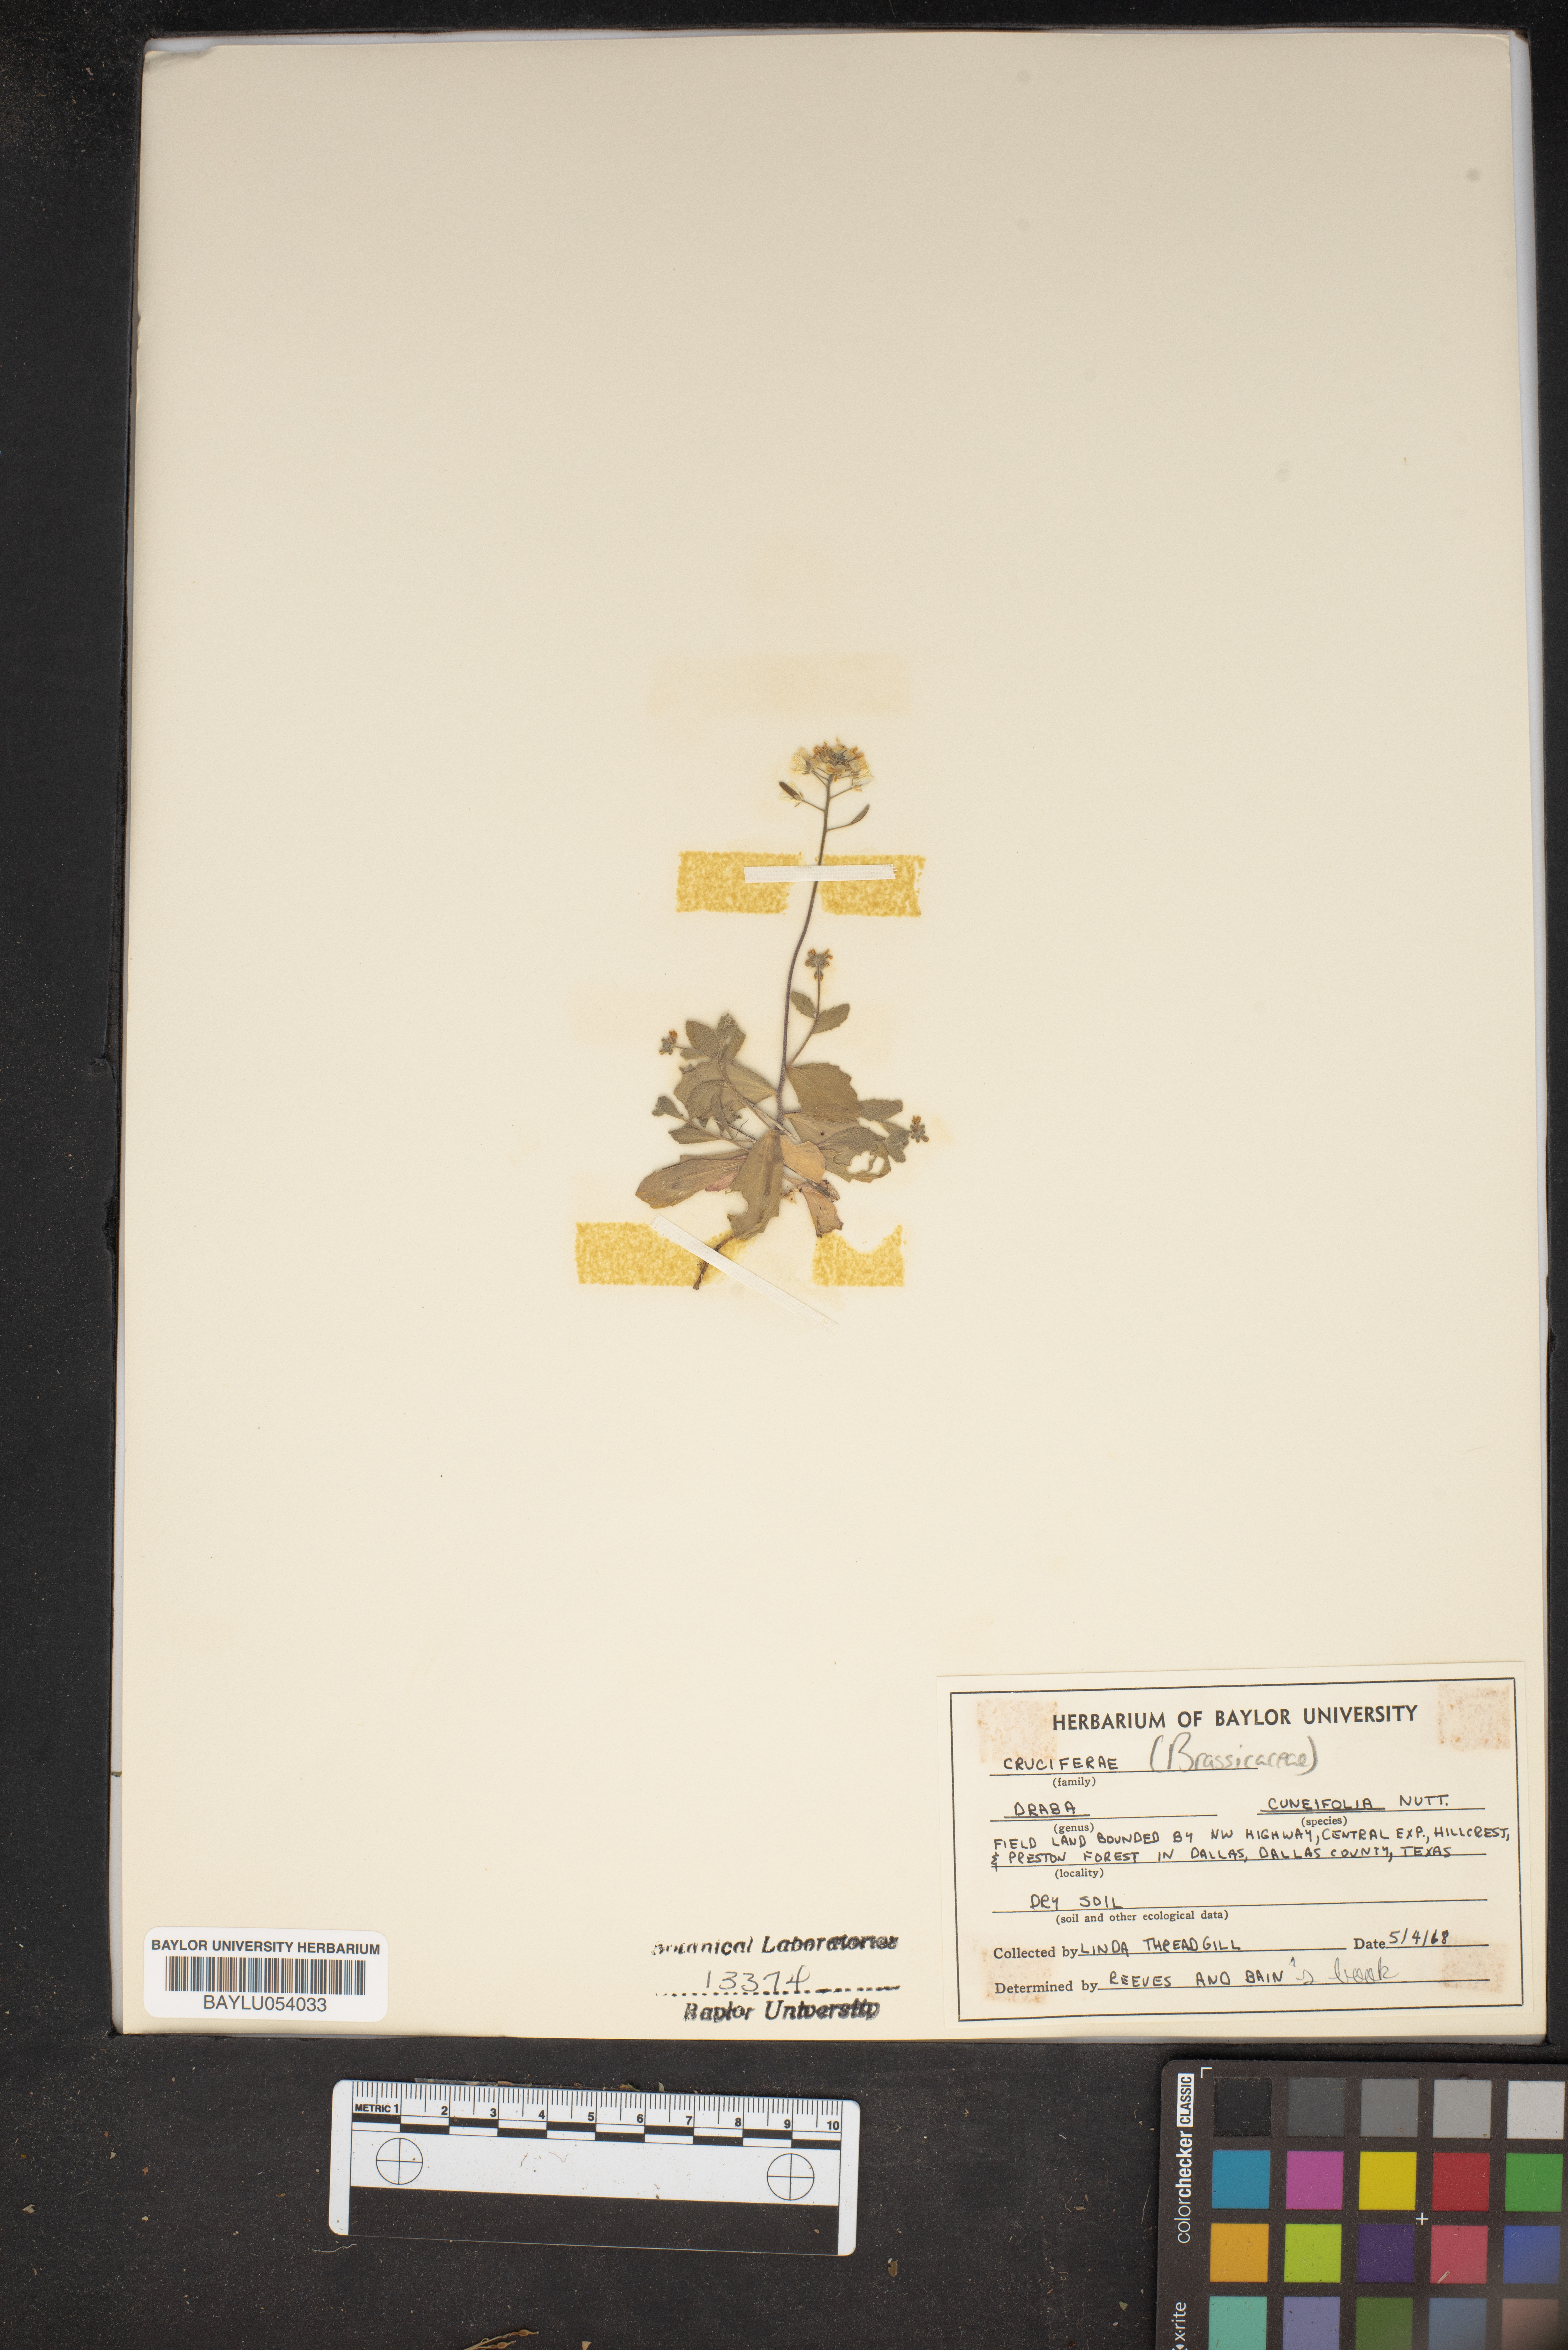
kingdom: Plantae
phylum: Tracheophyta
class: Magnoliopsida
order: Brassicales
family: Brassicaceae
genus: Tomostima
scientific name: Tomostima cuneifolia
